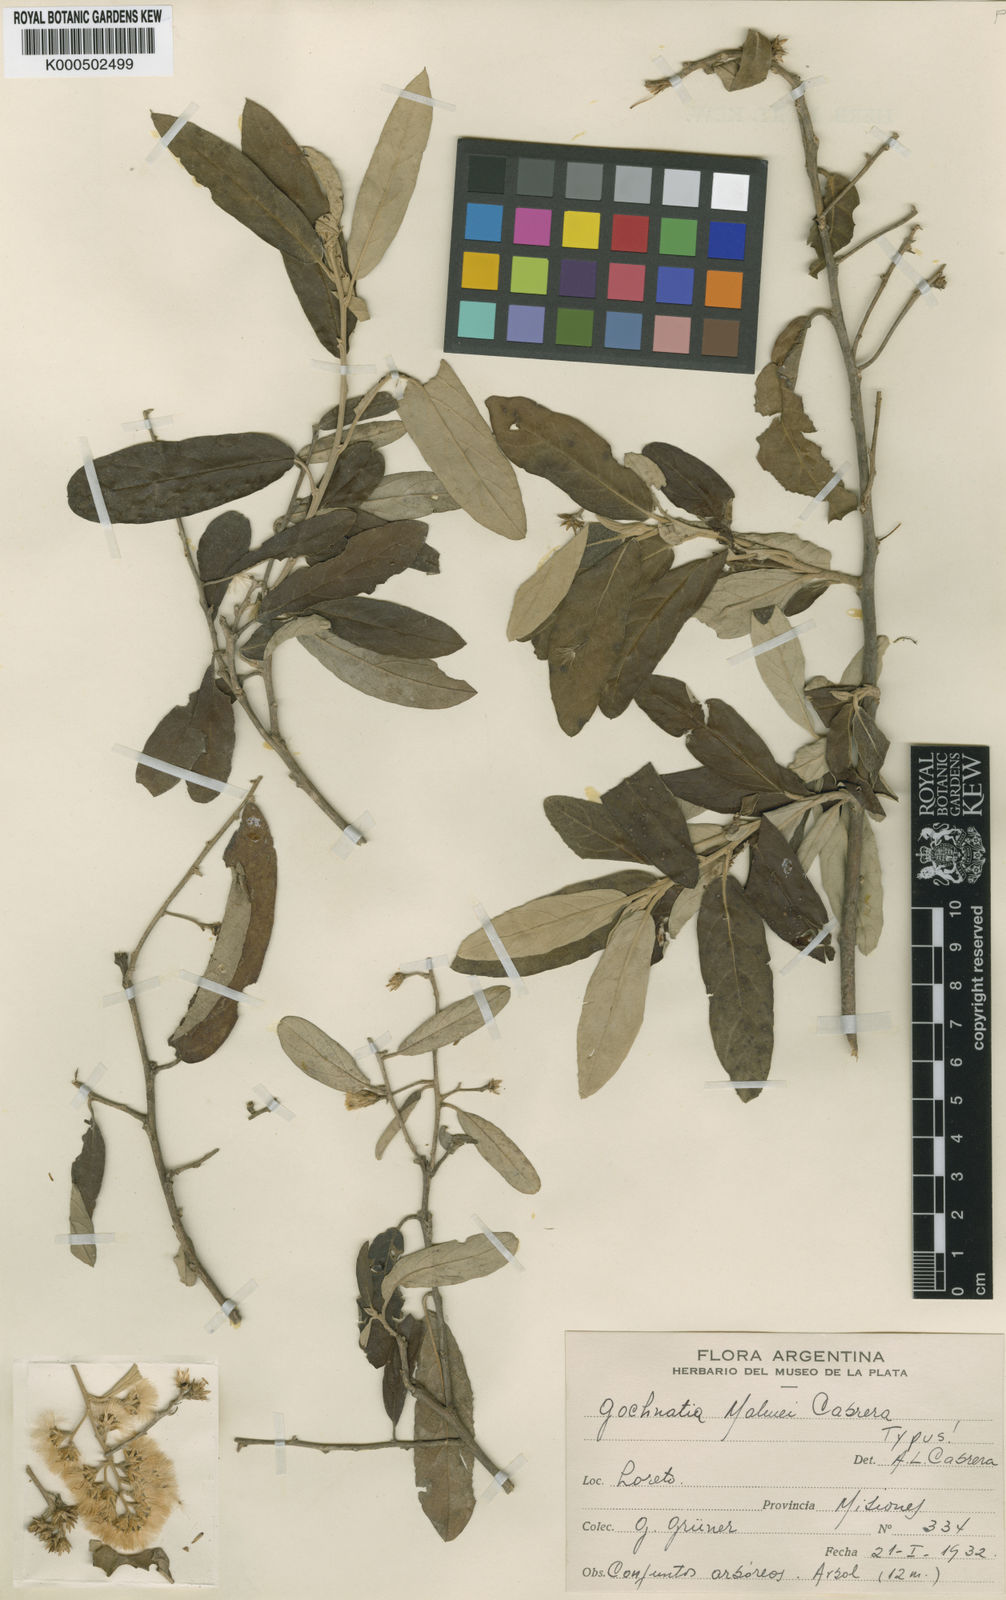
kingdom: Plantae
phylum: Tracheophyta
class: Magnoliopsida
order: Asterales
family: Asteraceae
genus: Moquiniastrum
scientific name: Moquiniastrum polymorphum
